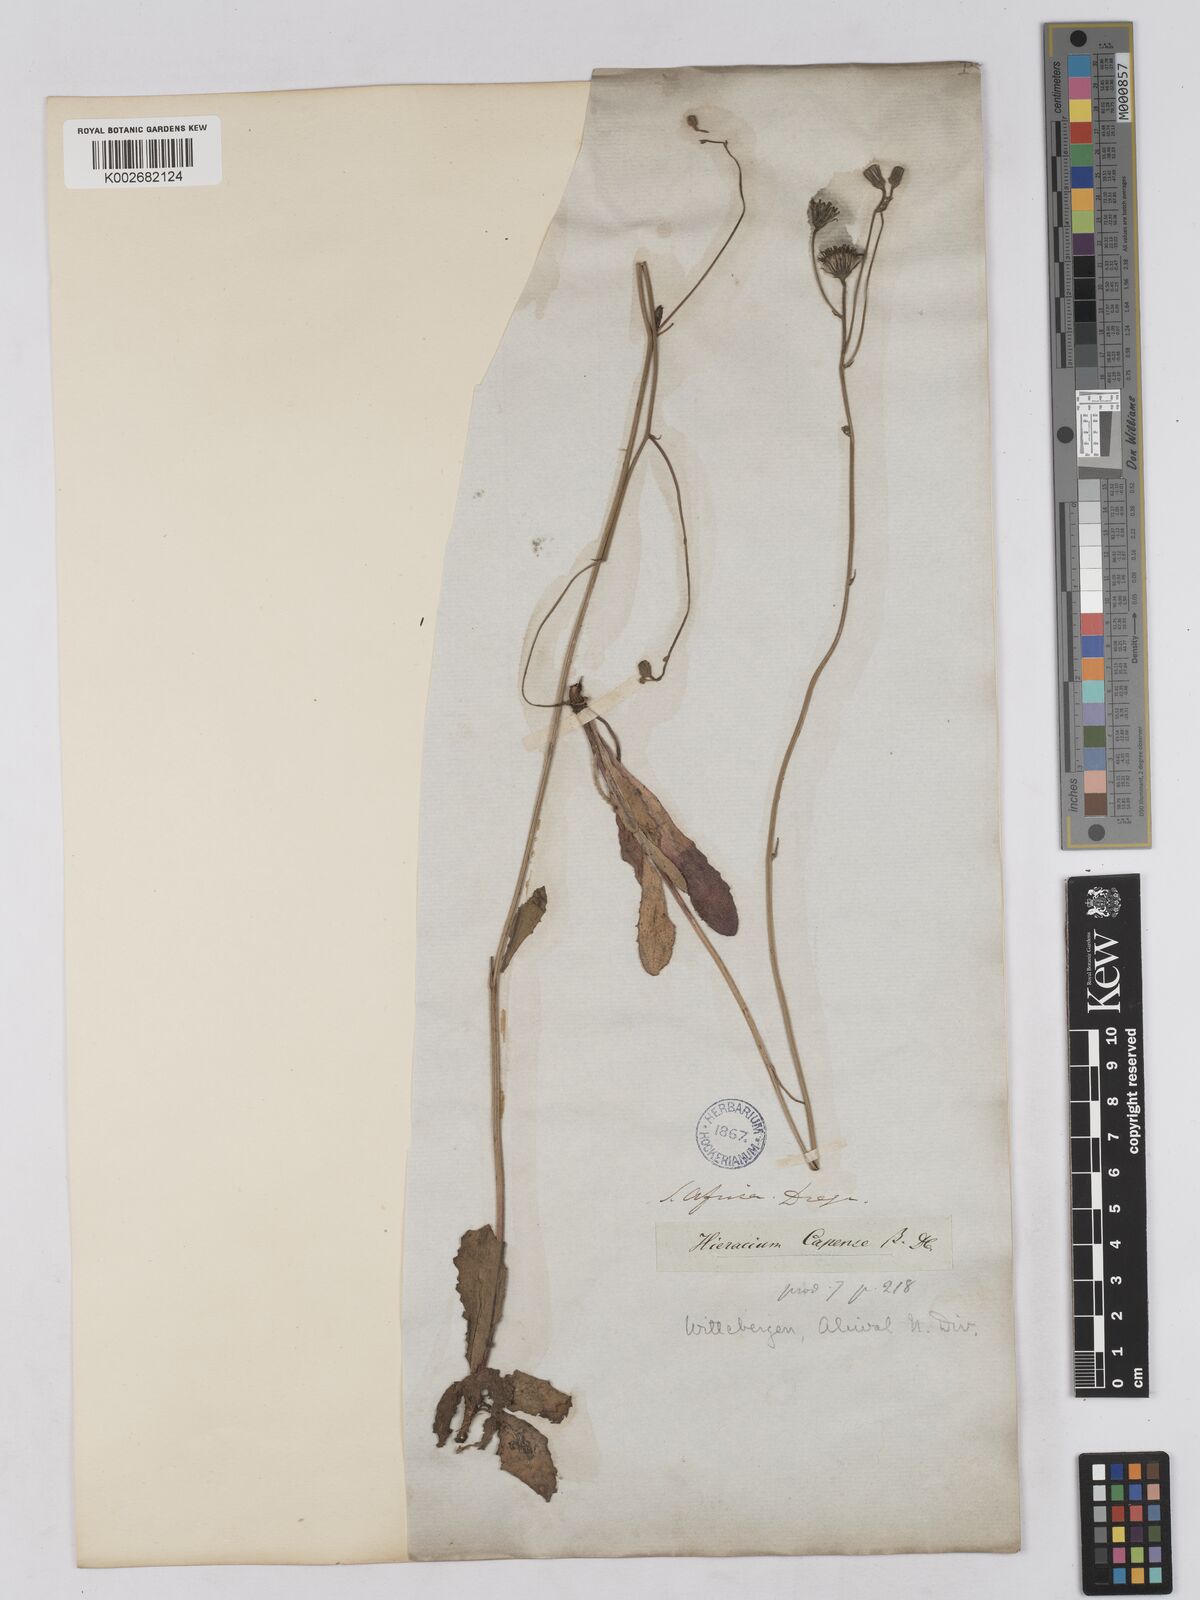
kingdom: Plantae
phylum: Tracheophyta
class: Magnoliopsida
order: Asterales
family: Asteraceae
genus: Tolpis
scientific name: Tolpis capensis
